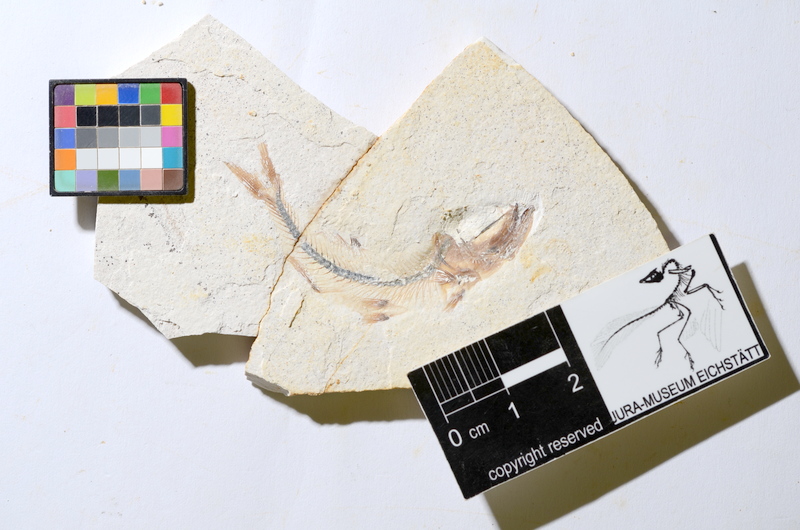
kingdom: Animalia
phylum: Chordata
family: Ascalaboidae
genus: Ebertichthys
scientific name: Ebertichthys ettlingensis
